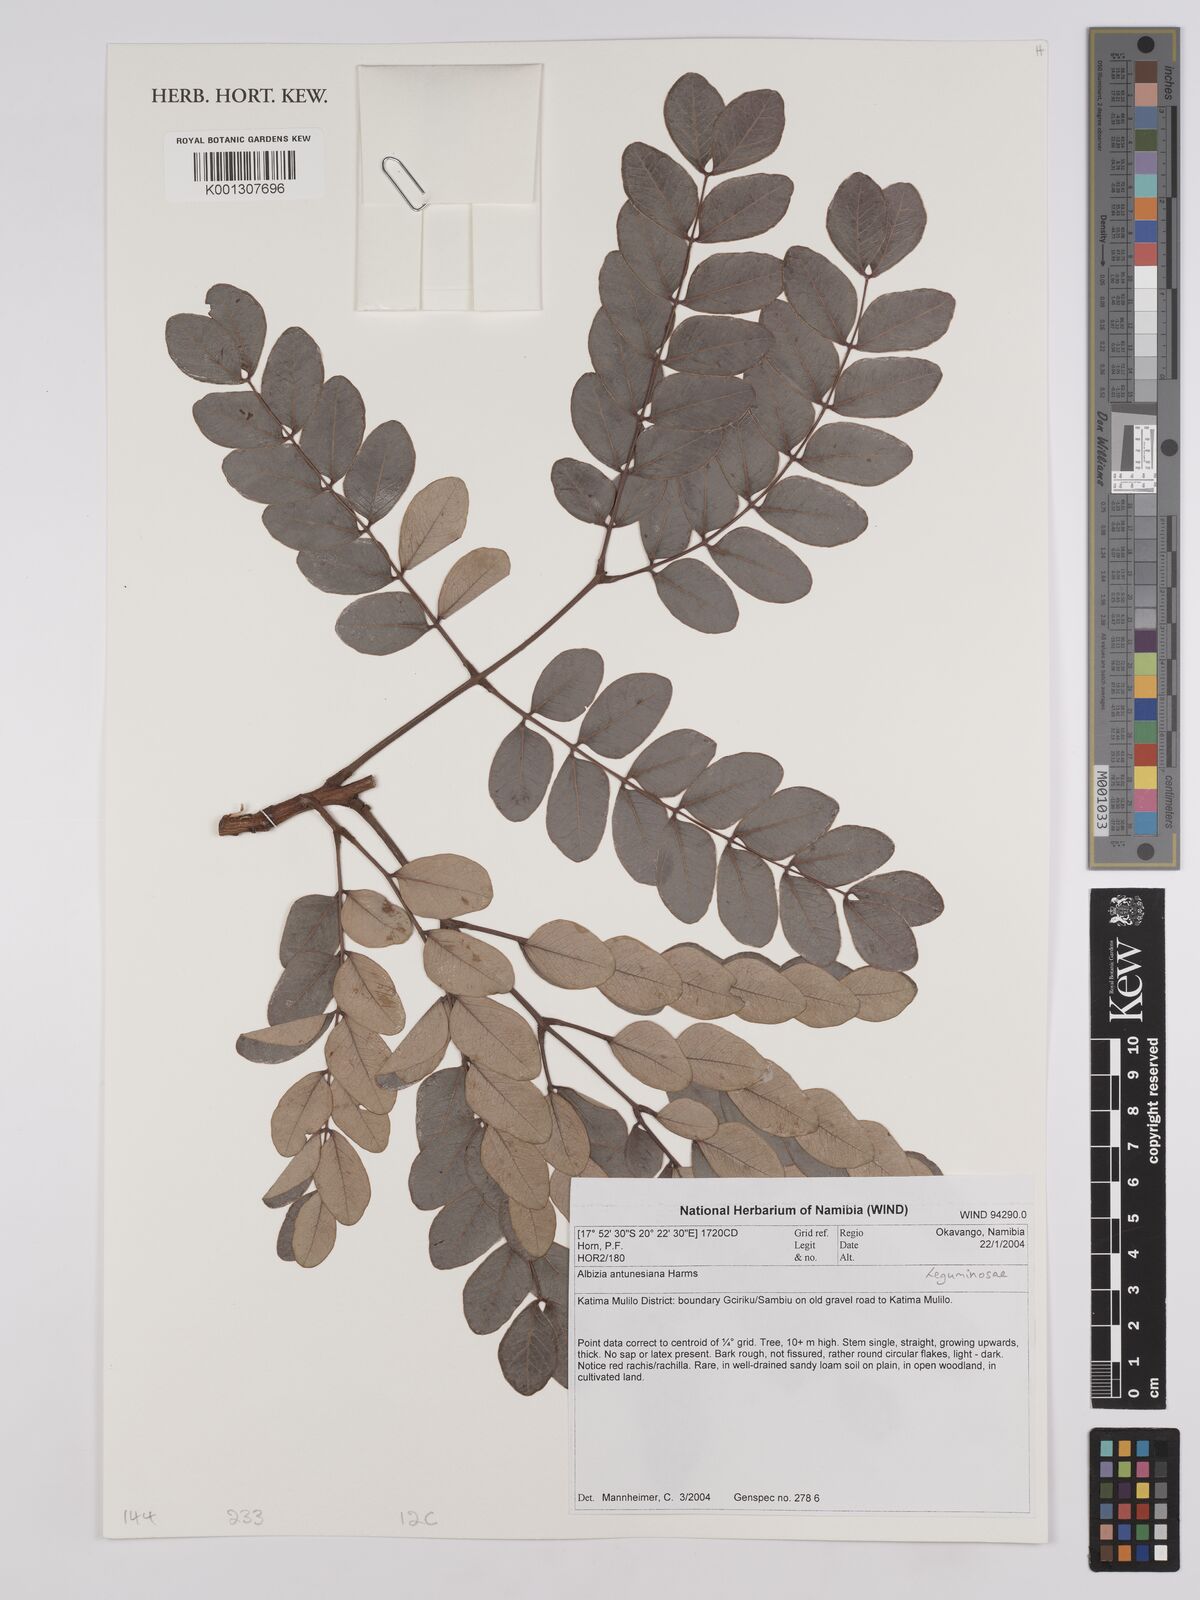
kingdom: Plantae
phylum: Tracheophyta
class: Magnoliopsida
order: Fabales
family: Fabaceae
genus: Albizia
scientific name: Albizia antunesiana
